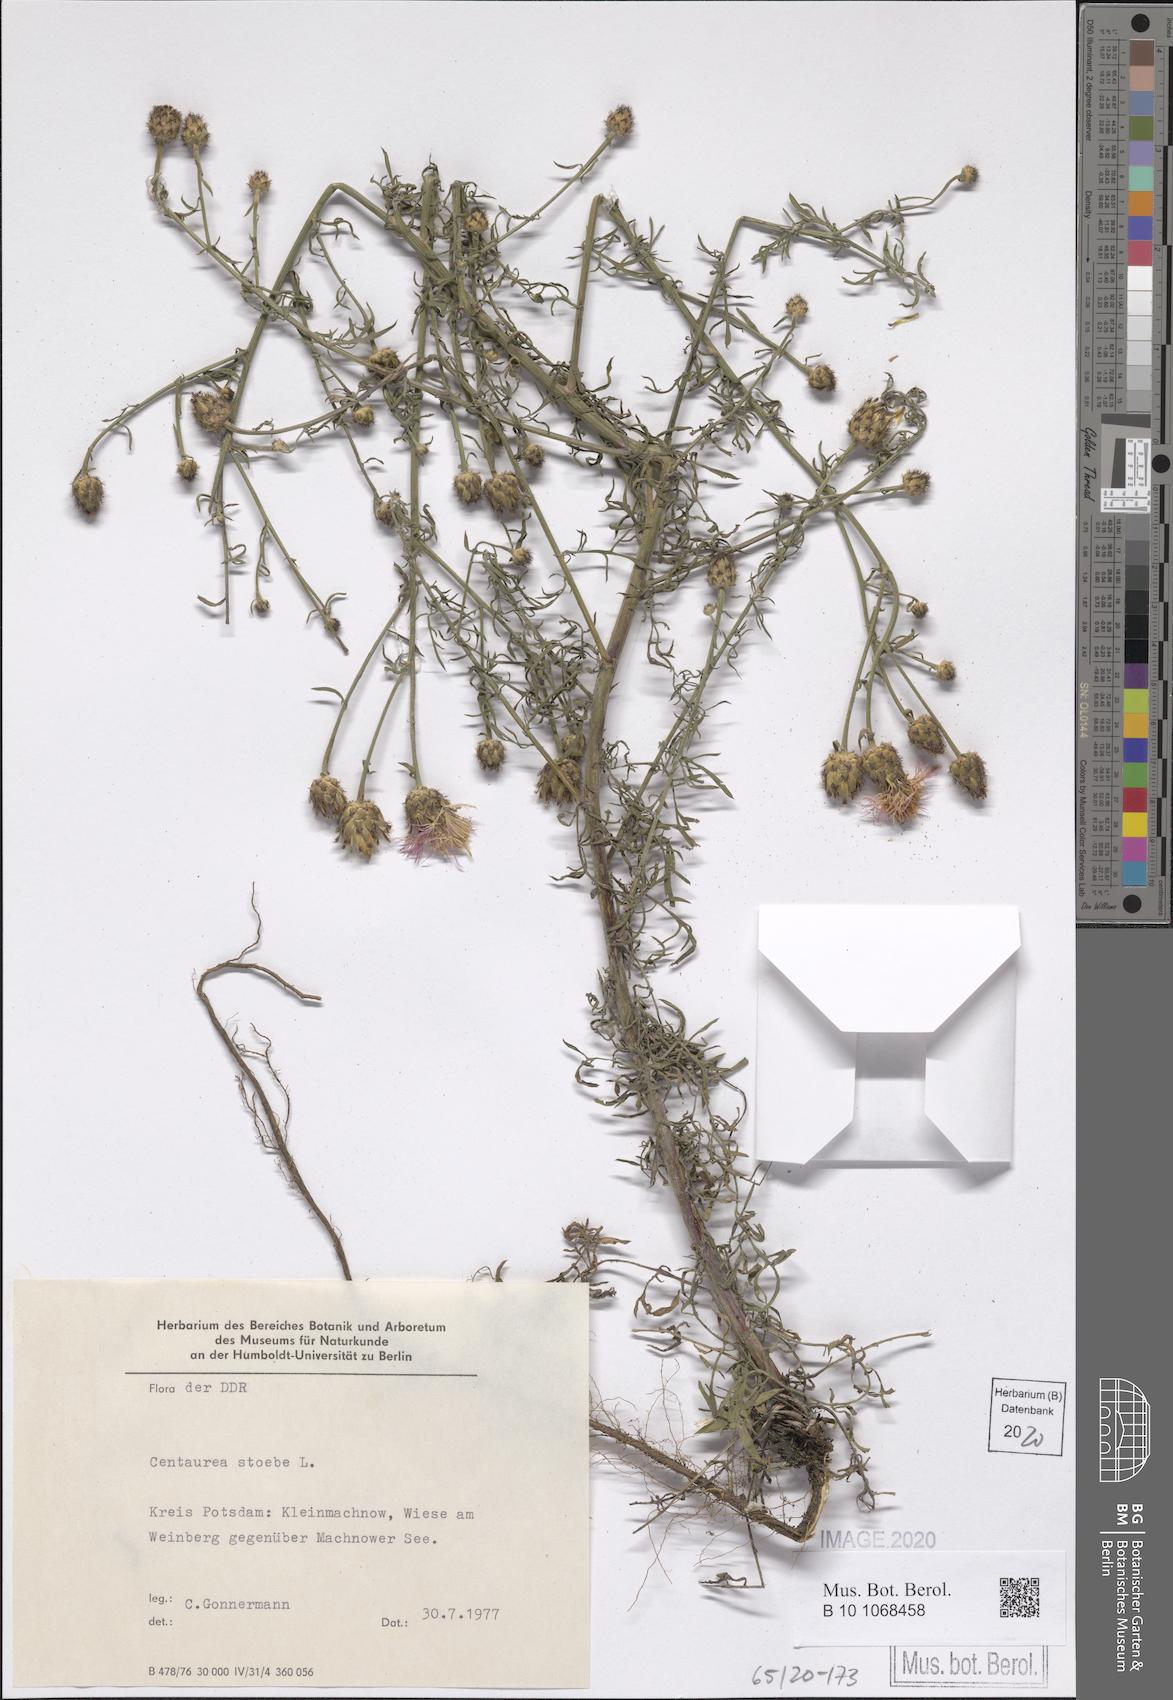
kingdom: Plantae
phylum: Tracheophyta
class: Magnoliopsida
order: Asterales
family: Asteraceae
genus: Centaurea
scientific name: Centaurea stoebe
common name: Spotted knapweed
